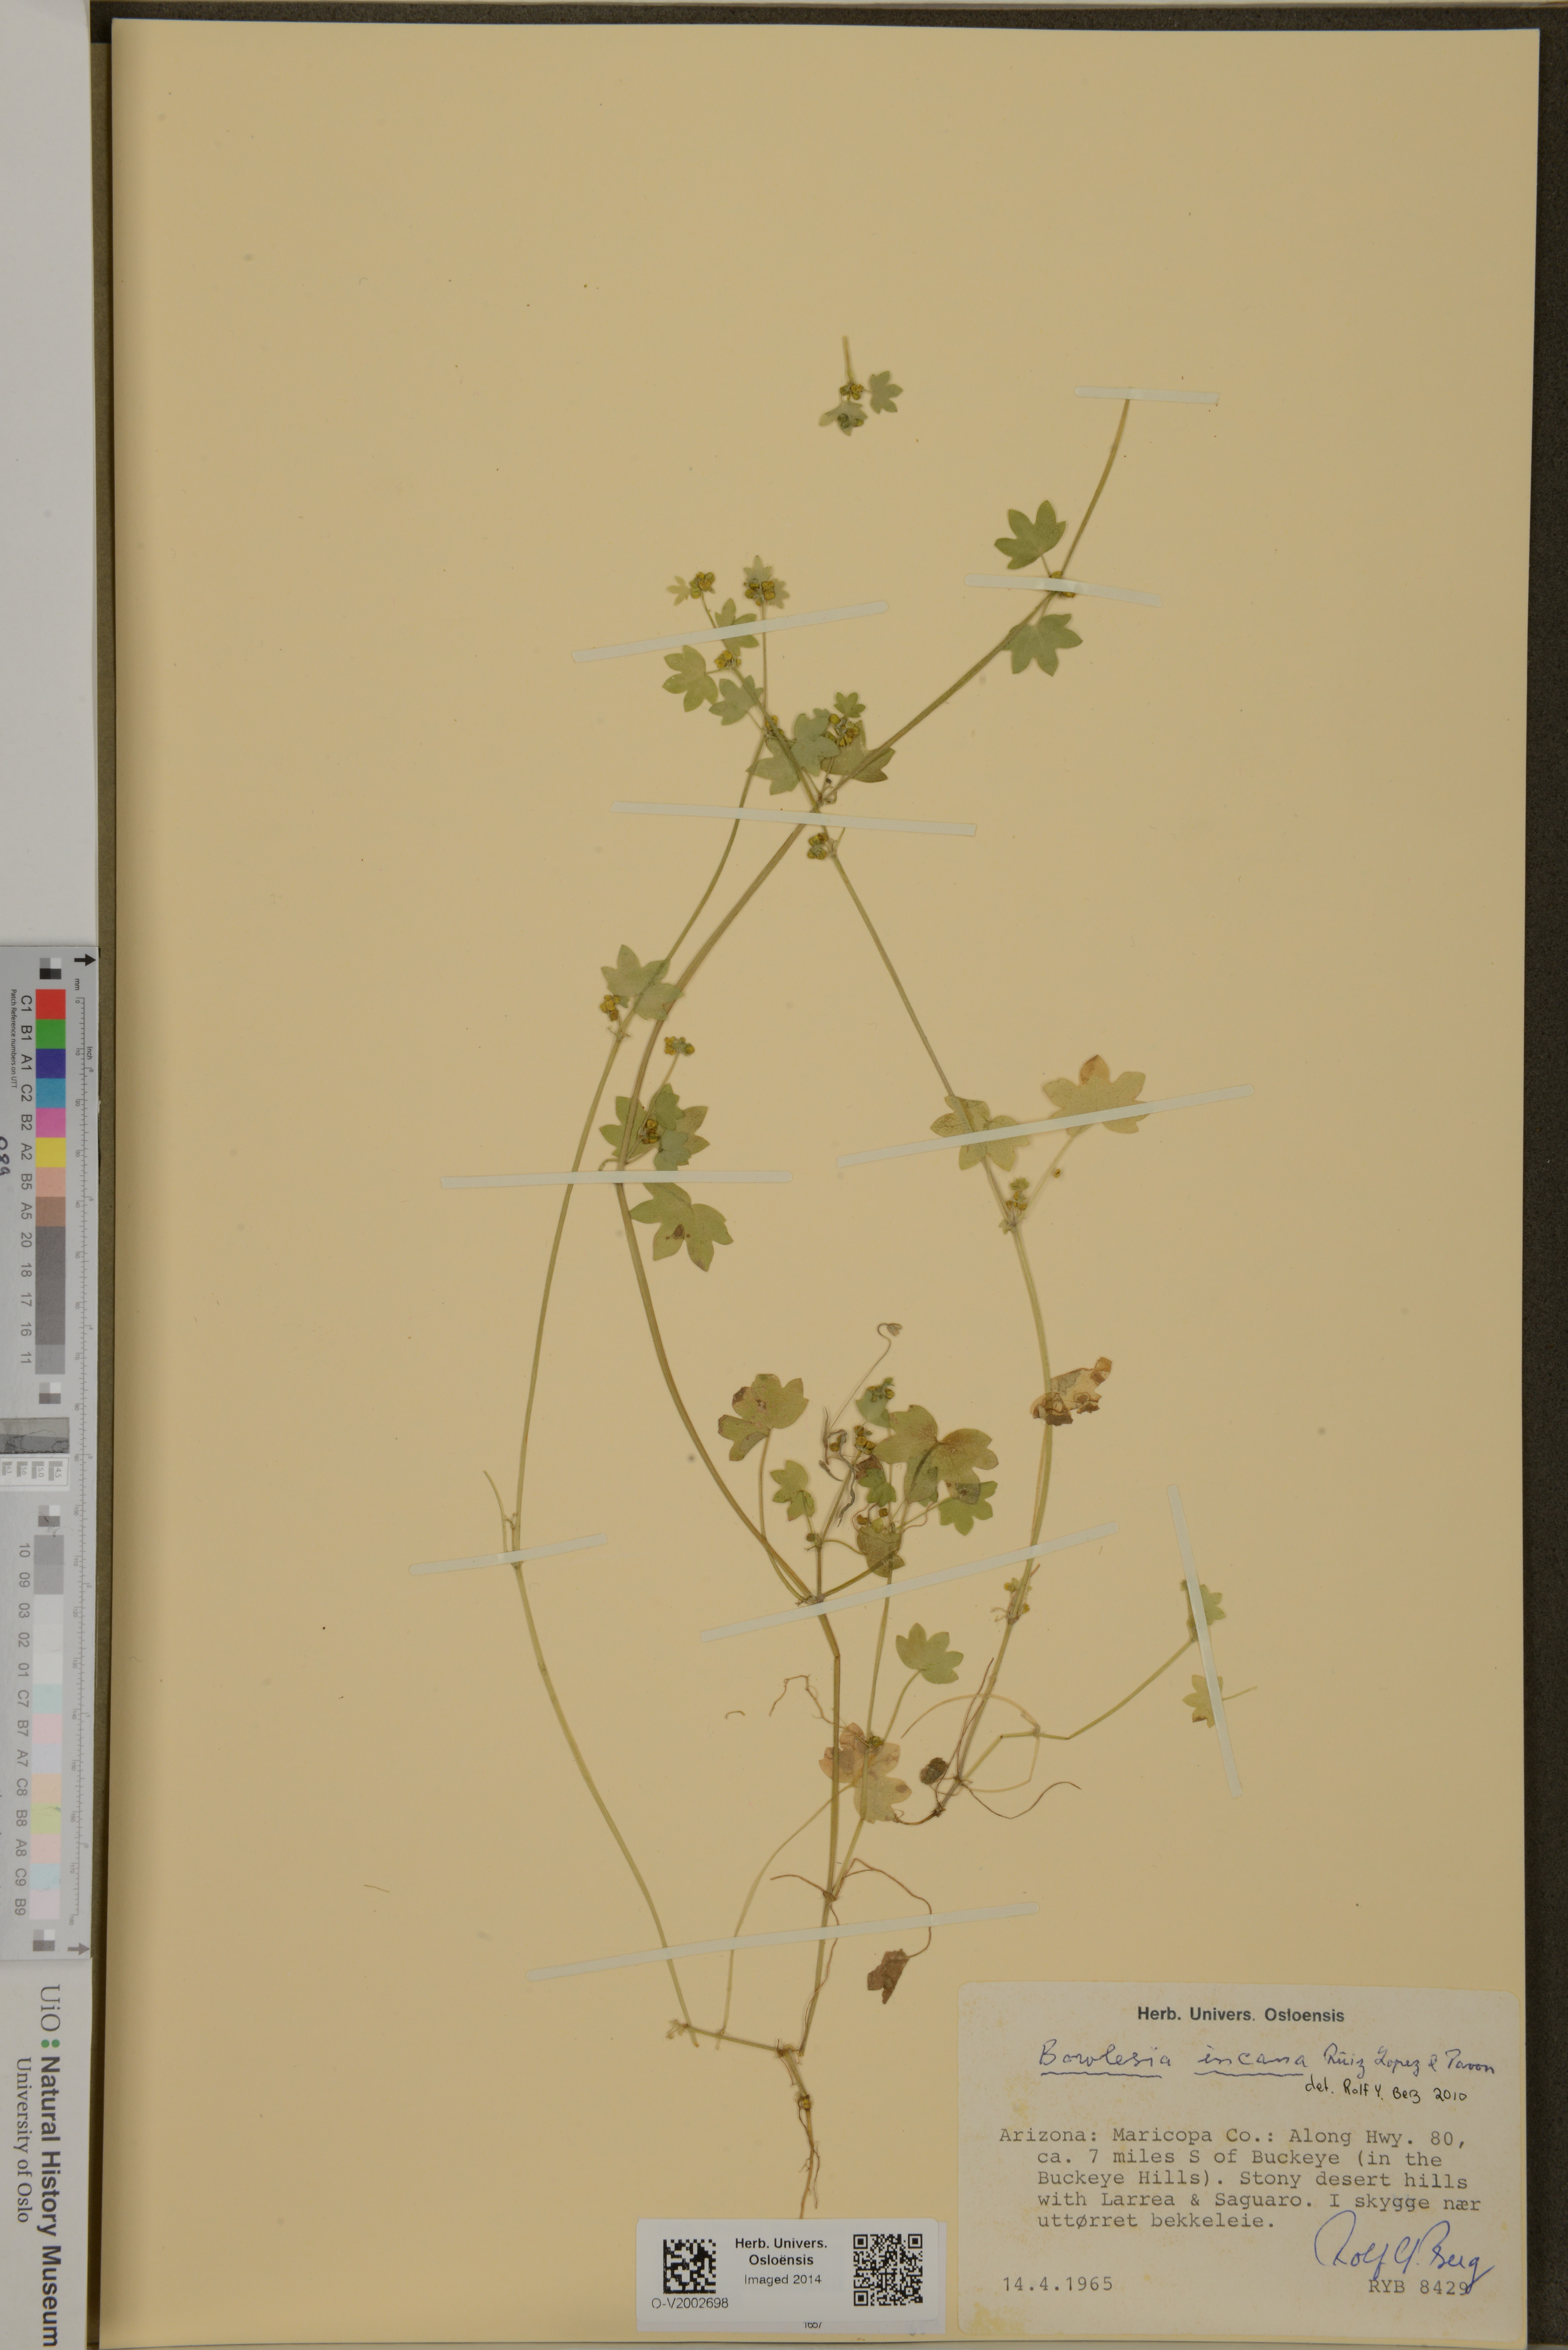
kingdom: Plantae
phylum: Tracheophyta
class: Magnoliopsida
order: Apiales
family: Apiaceae
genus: Bowlesia
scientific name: Bowlesia incana
